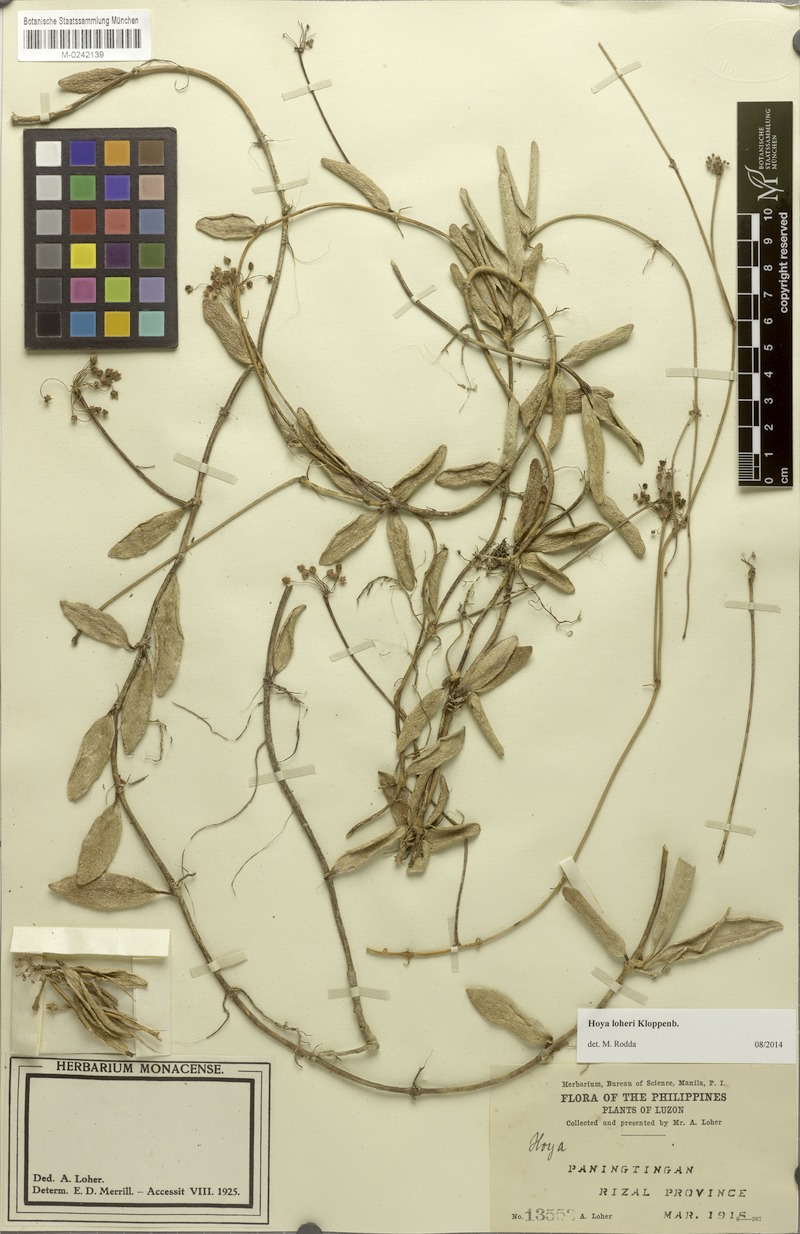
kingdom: Plantae
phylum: Tracheophyta
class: Magnoliopsida
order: Gentianales
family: Apocynaceae
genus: Hoya
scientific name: Hoya loheri
